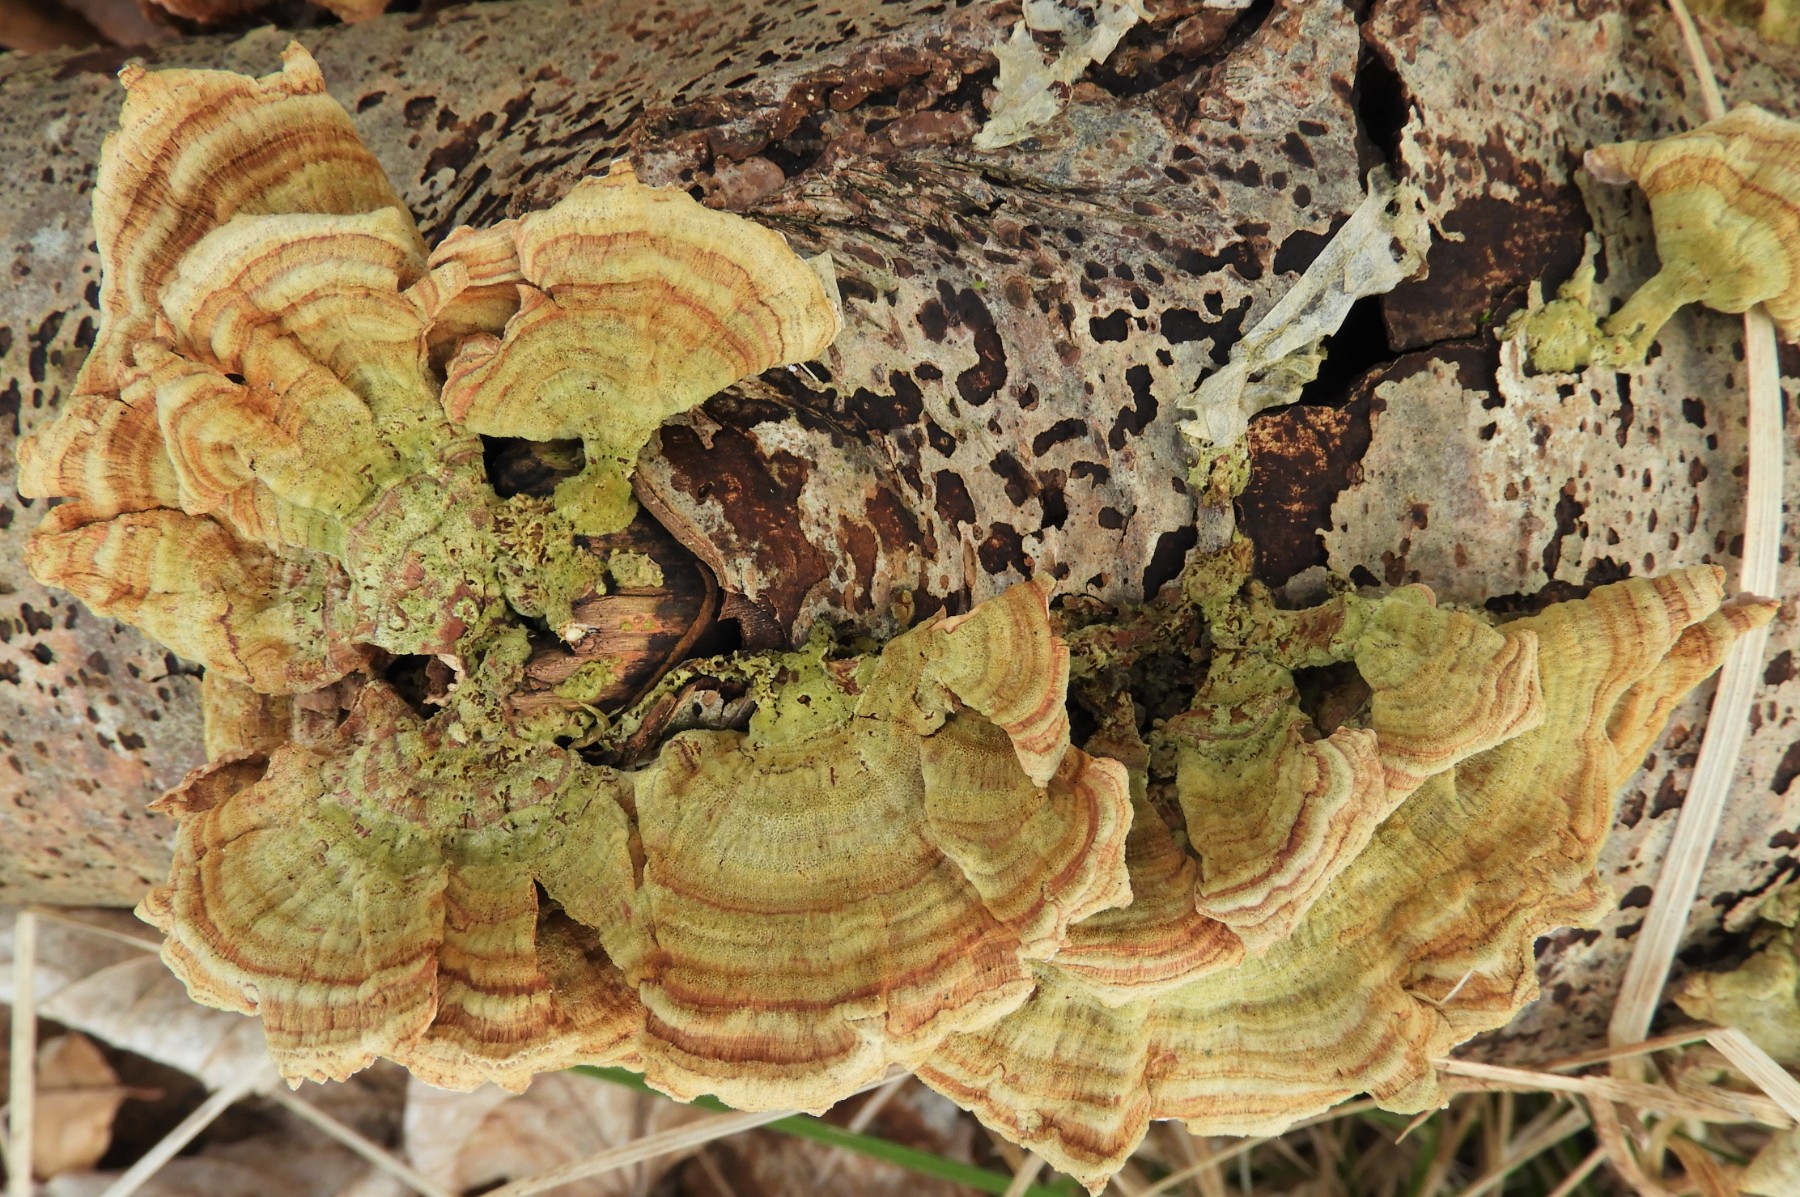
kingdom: Fungi
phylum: Basidiomycota
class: Agaricomycetes
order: Russulales
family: Stereaceae
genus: Stereum
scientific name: Stereum subtomentosum
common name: smuk lædersvamp
